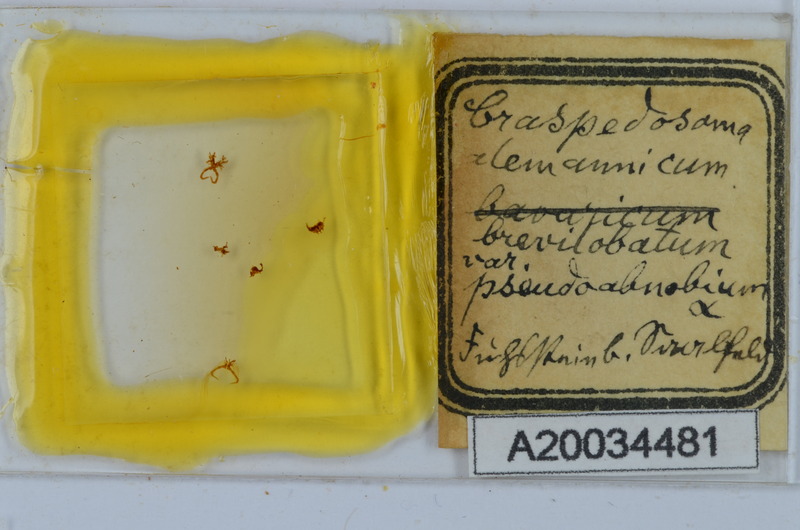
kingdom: Animalia
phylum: Arthropoda
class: Diplopoda
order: Chordeumatida
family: Craspedosomatidae
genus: Craspedosoma
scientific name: Craspedosoma rawlinsii
